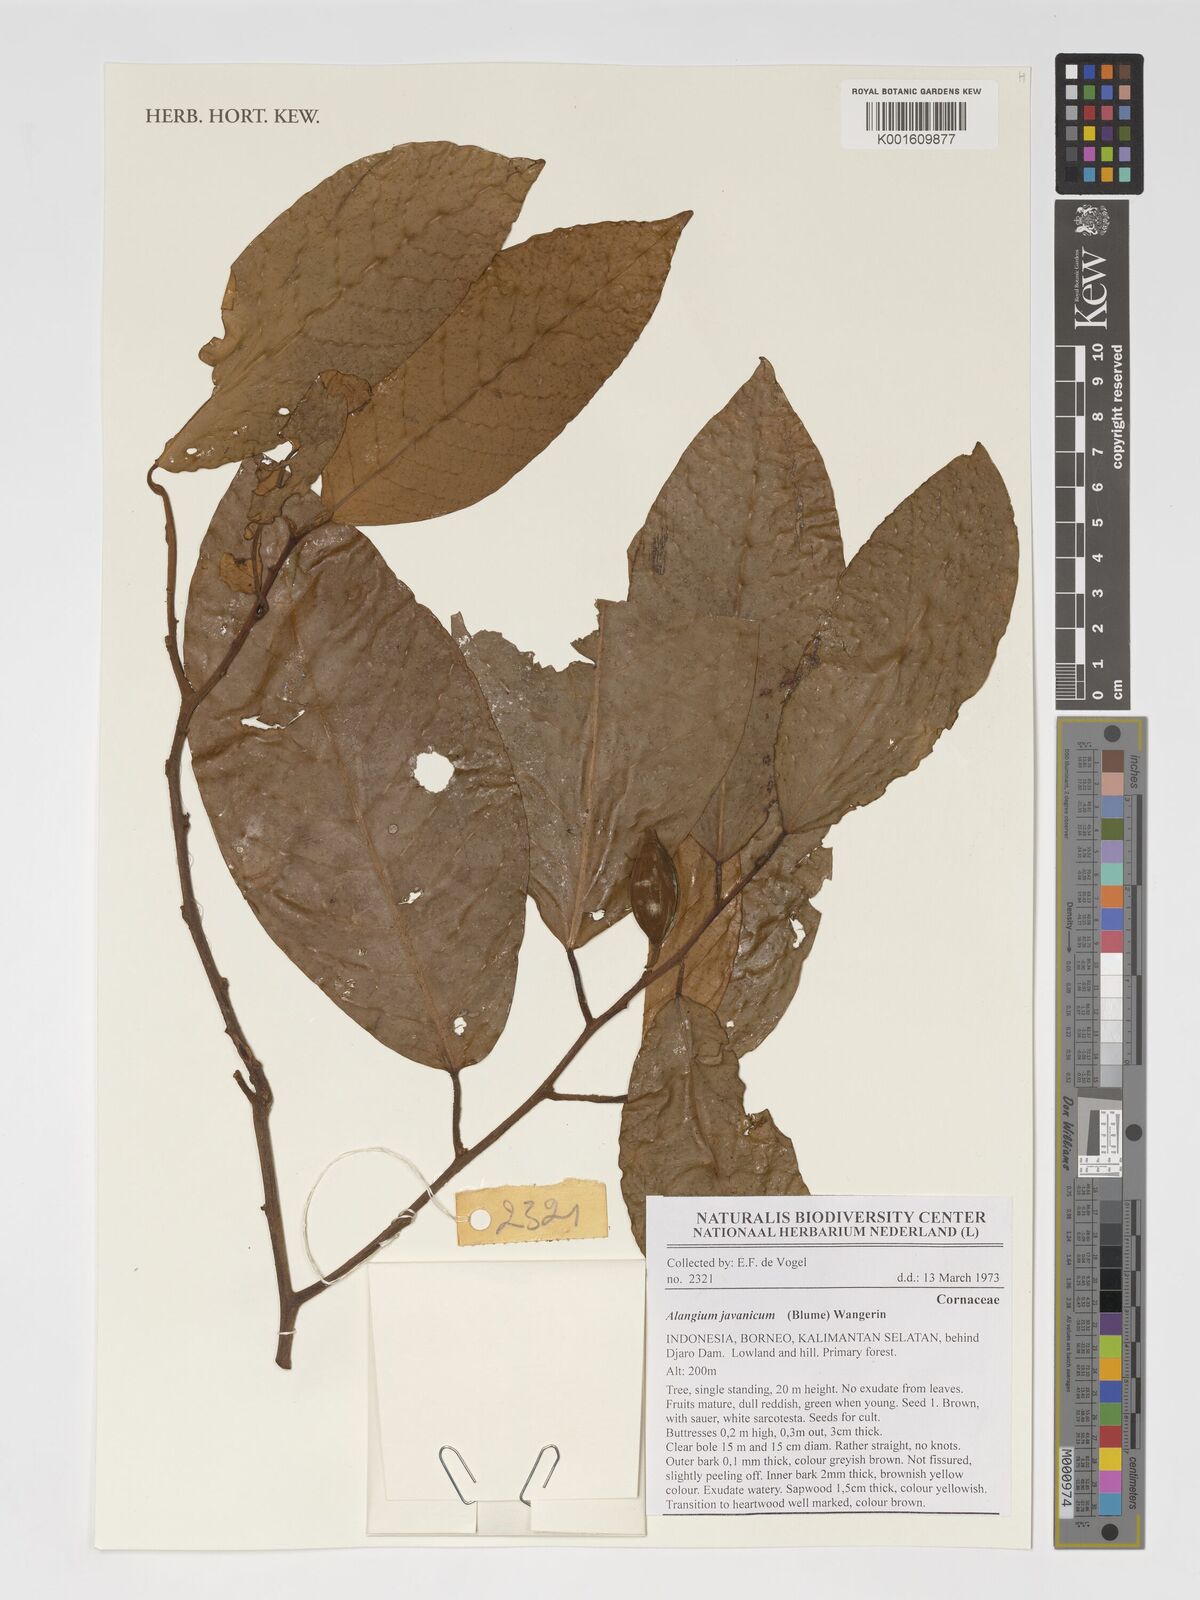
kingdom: Plantae
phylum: Tracheophyta
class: Magnoliopsida
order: Cornales
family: Cornaceae
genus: Alangium
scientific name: Alangium javanicum
